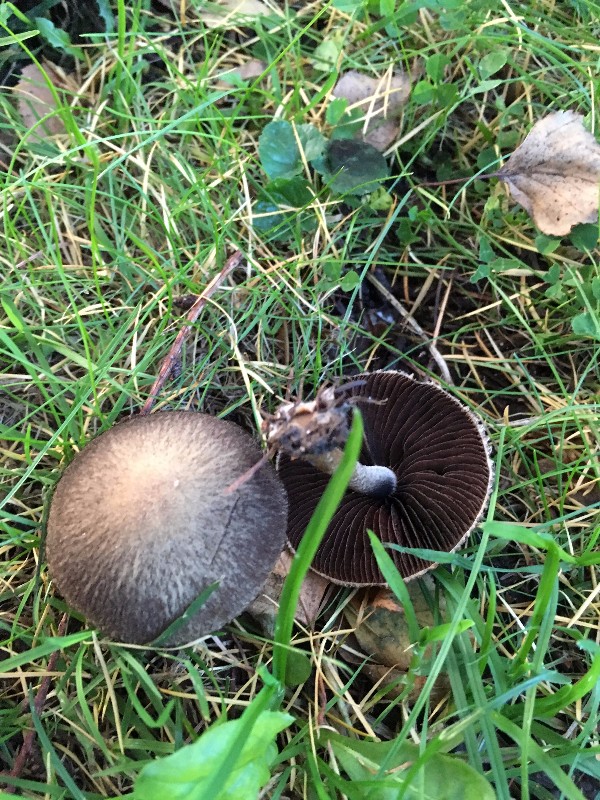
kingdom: Fungi
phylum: Basidiomycota
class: Agaricomycetes
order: Agaricales
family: Psathyrellaceae
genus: Lacrymaria
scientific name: Lacrymaria lacrymabunda
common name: grædende mørkhat
